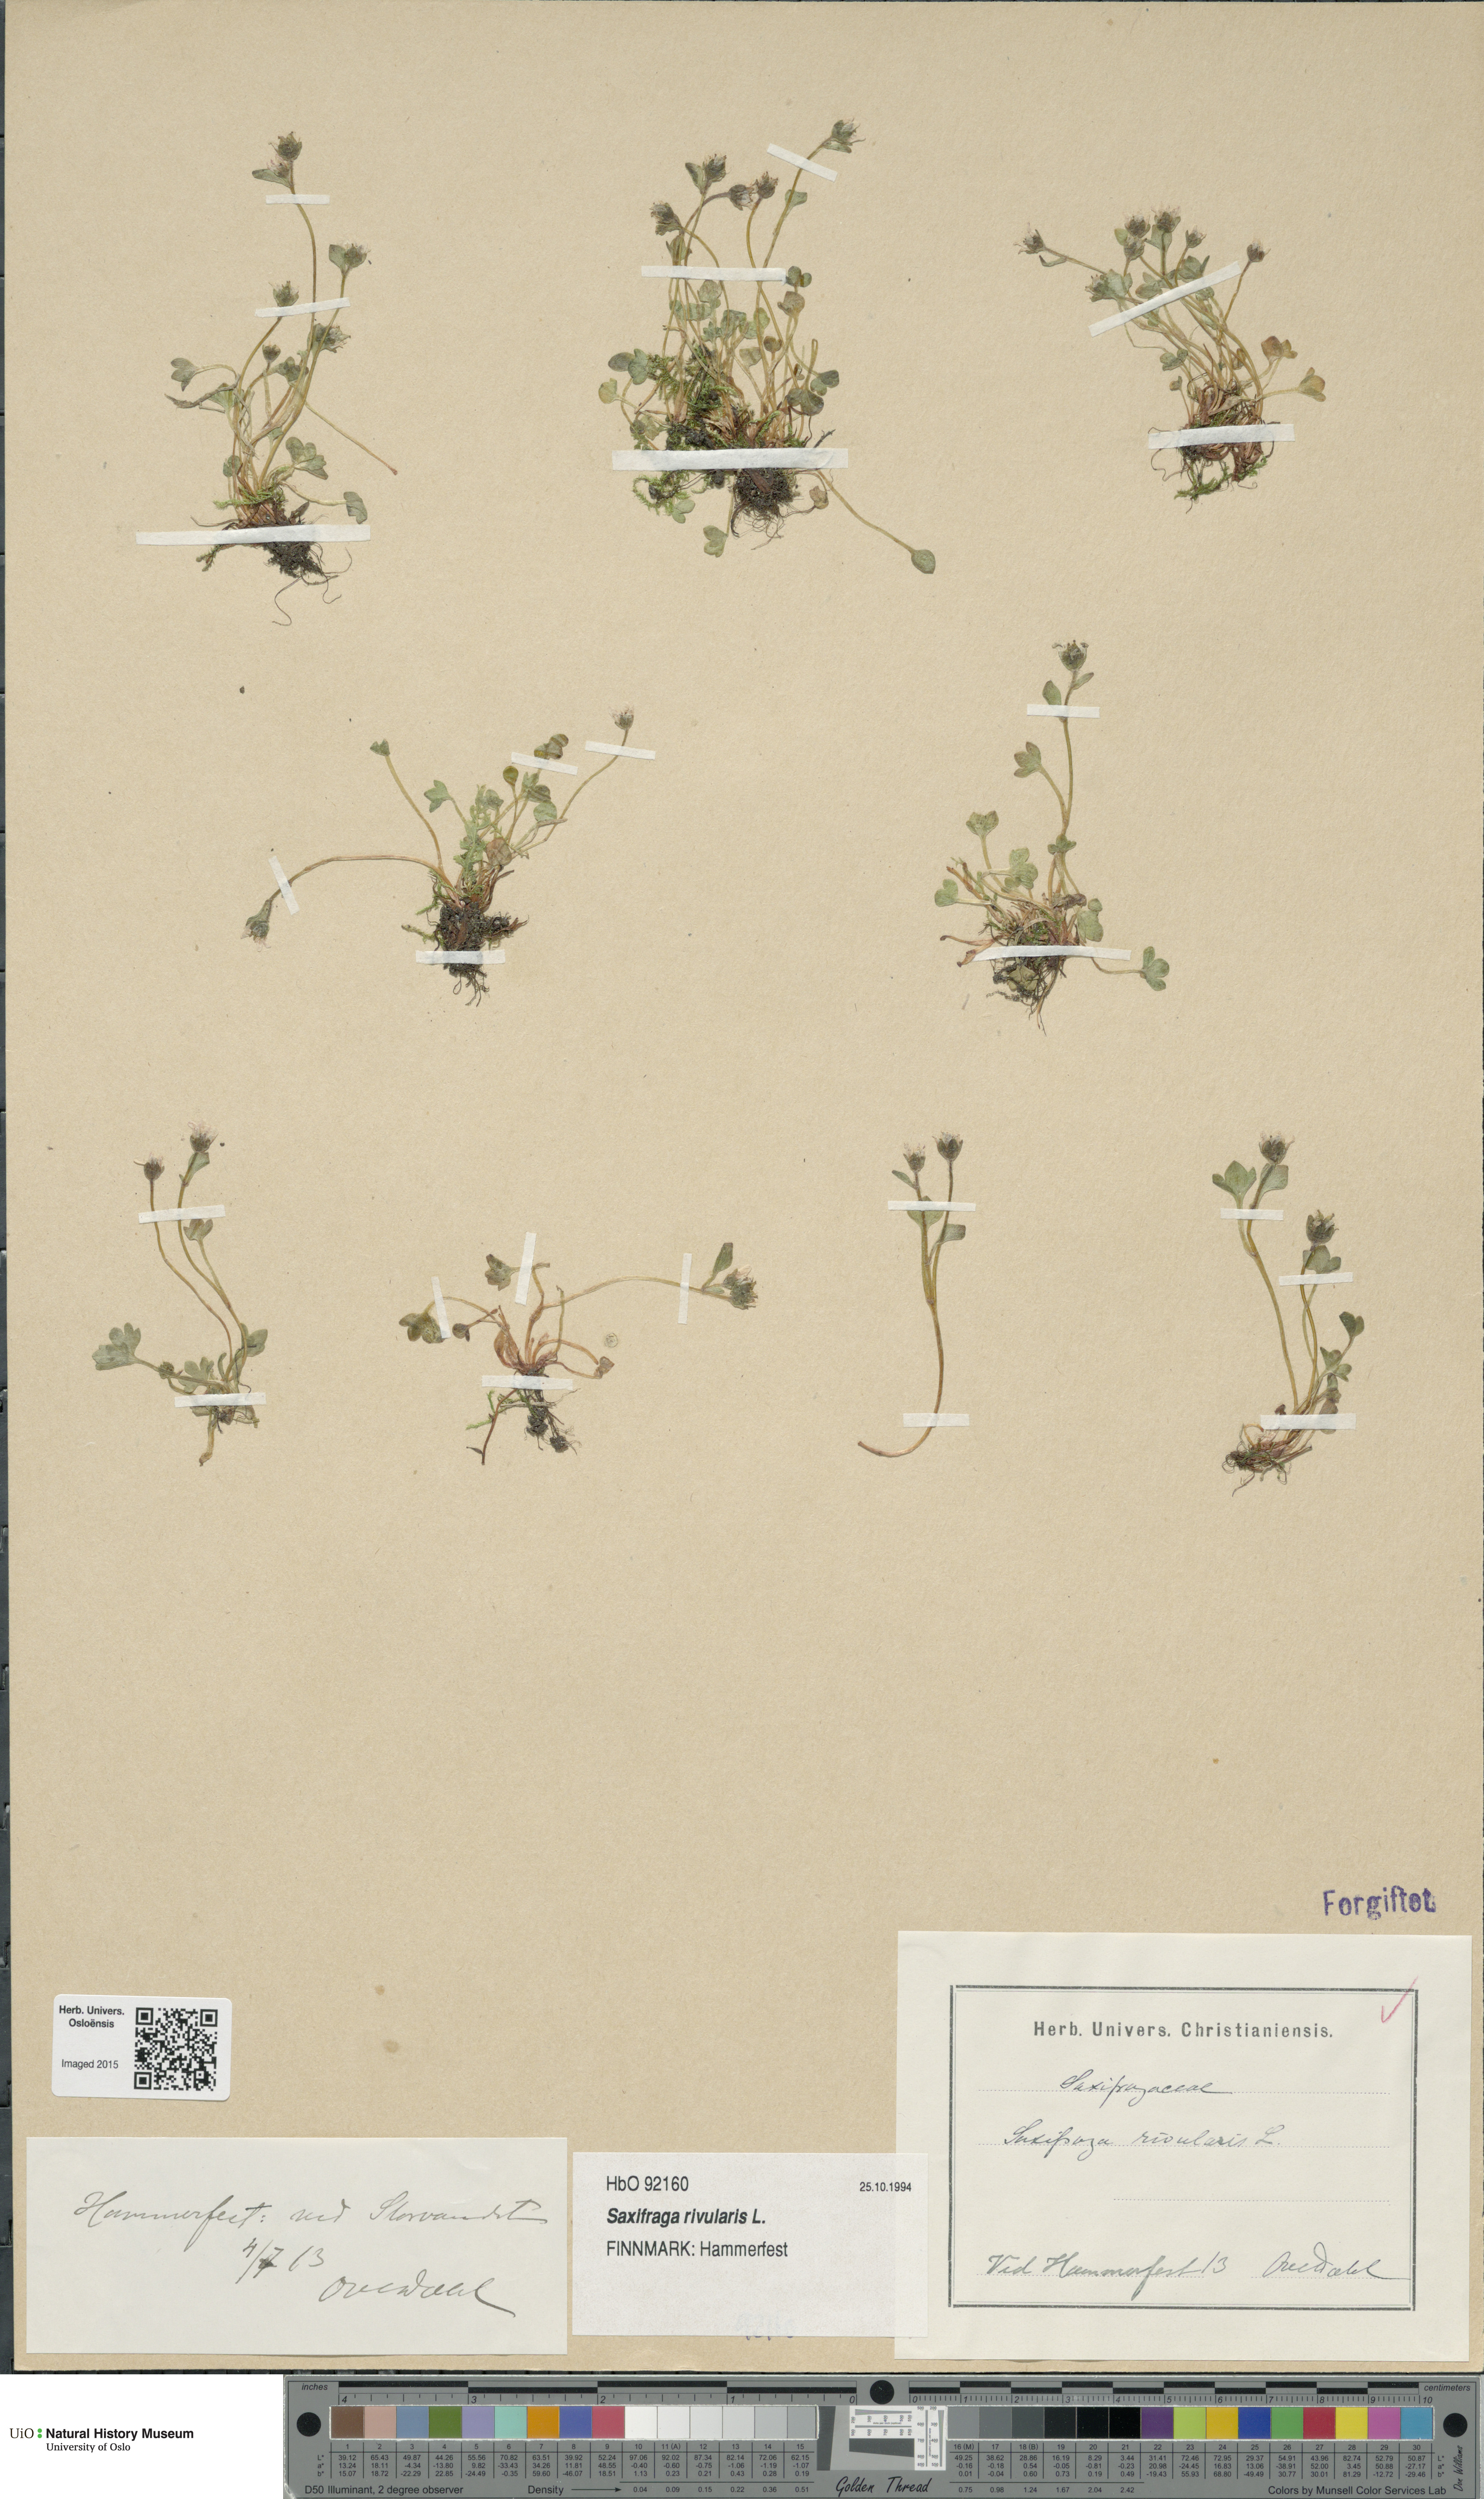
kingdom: Plantae
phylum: Tracheophyta
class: Magnoliopsida
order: Saxifragales
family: Saxifragaceae
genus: Saxifraga
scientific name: Saxifraga rivularis
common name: Highland saxifrage
